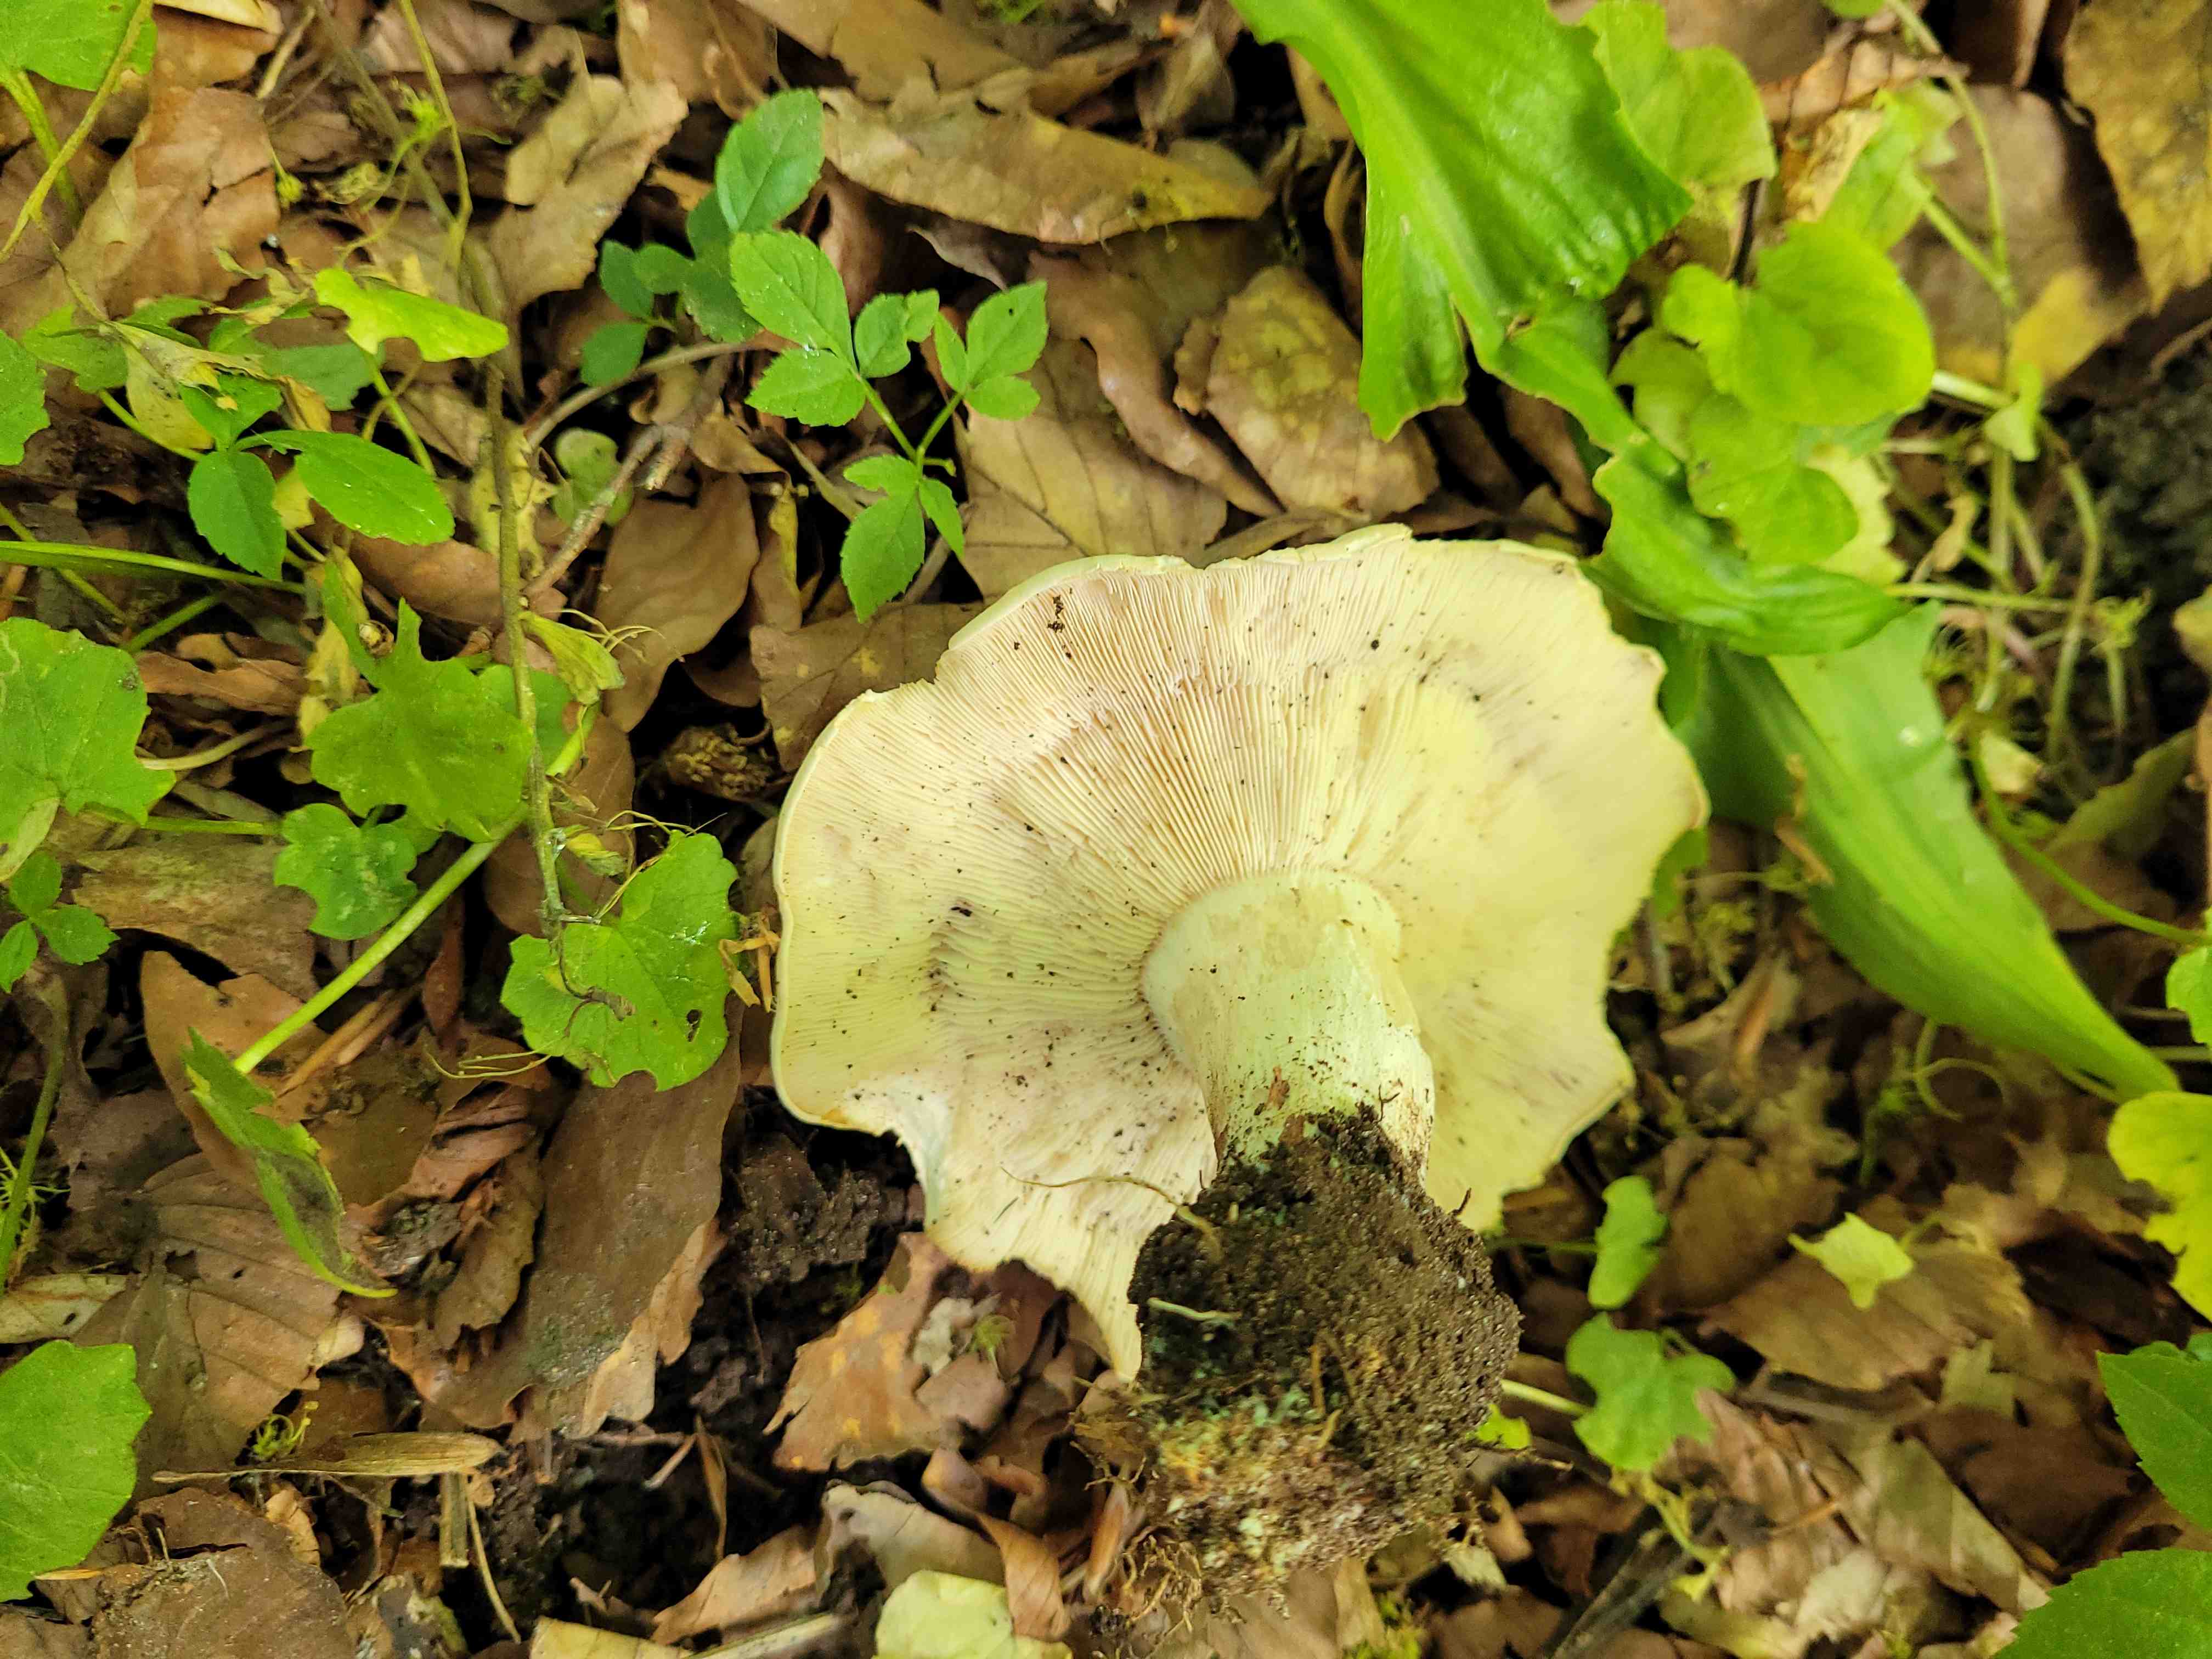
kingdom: Fungi
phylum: Basidiomycota
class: Agaricomycetes
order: Agaricales
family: Lyophyllaceae
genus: Calocybe
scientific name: Calocybe gambosa
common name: vårmusseron
